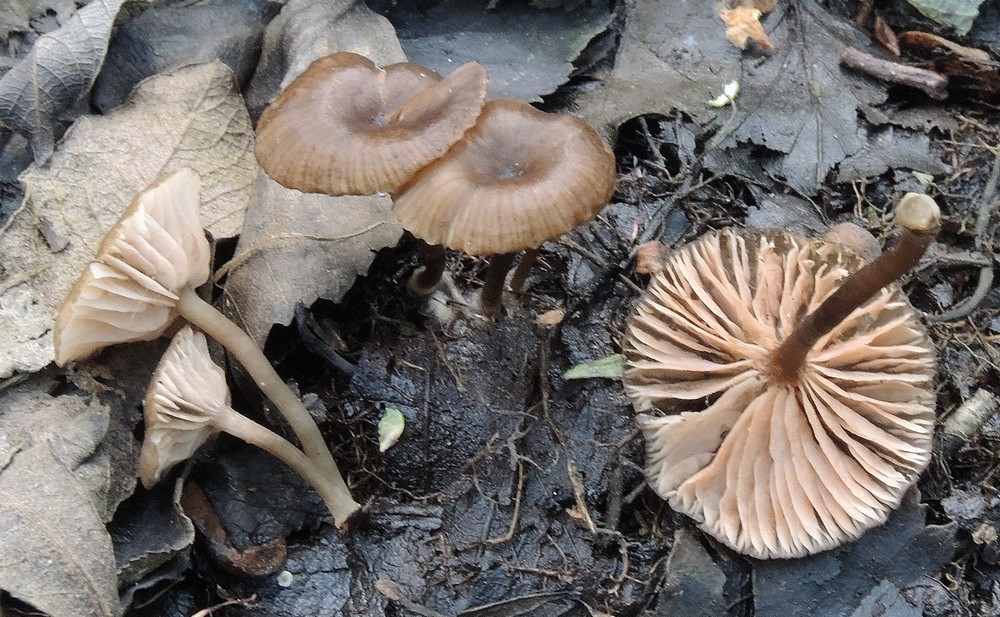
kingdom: Fungi
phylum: Basidiomycota
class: Agaricomycetes
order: Agaricales
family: Entolomataceae
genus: Entoloma
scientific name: Entoloma politum
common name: poleret rødblad
